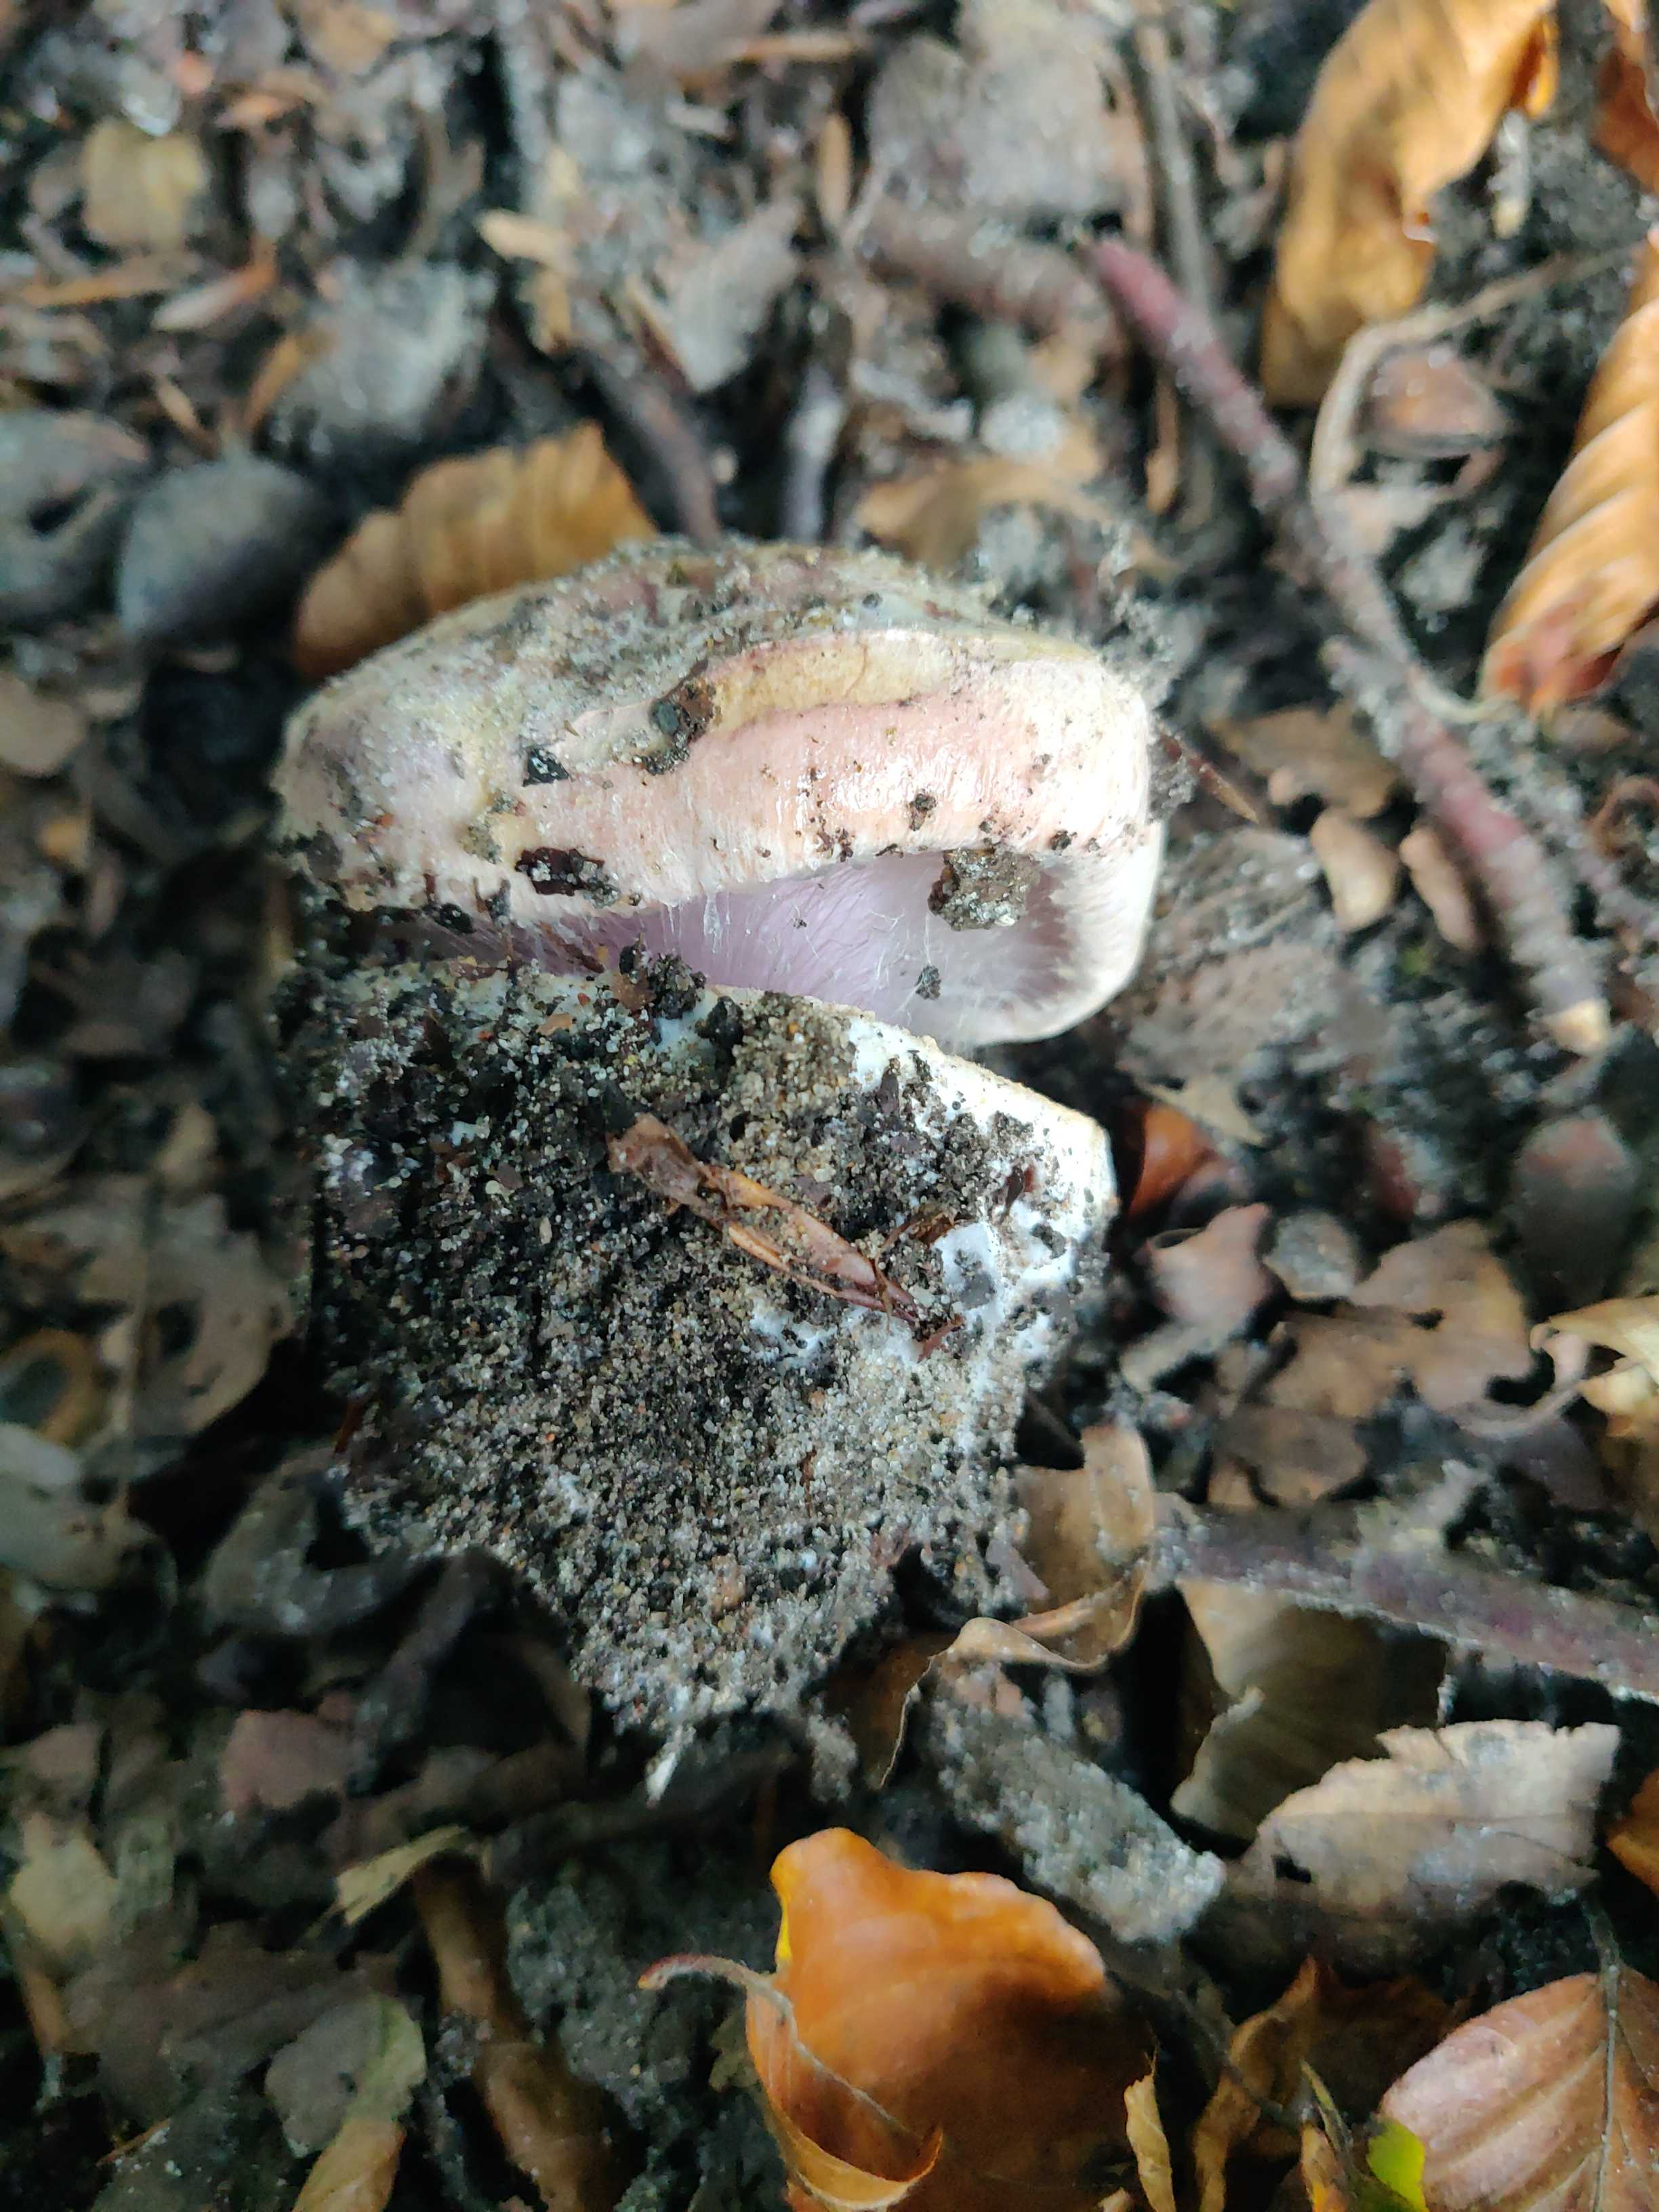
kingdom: Fungi
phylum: Basidiomycota
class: Agaricomycetes
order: Agaricales
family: Cortinariaceae
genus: Cortinarius
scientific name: Cortinarius
